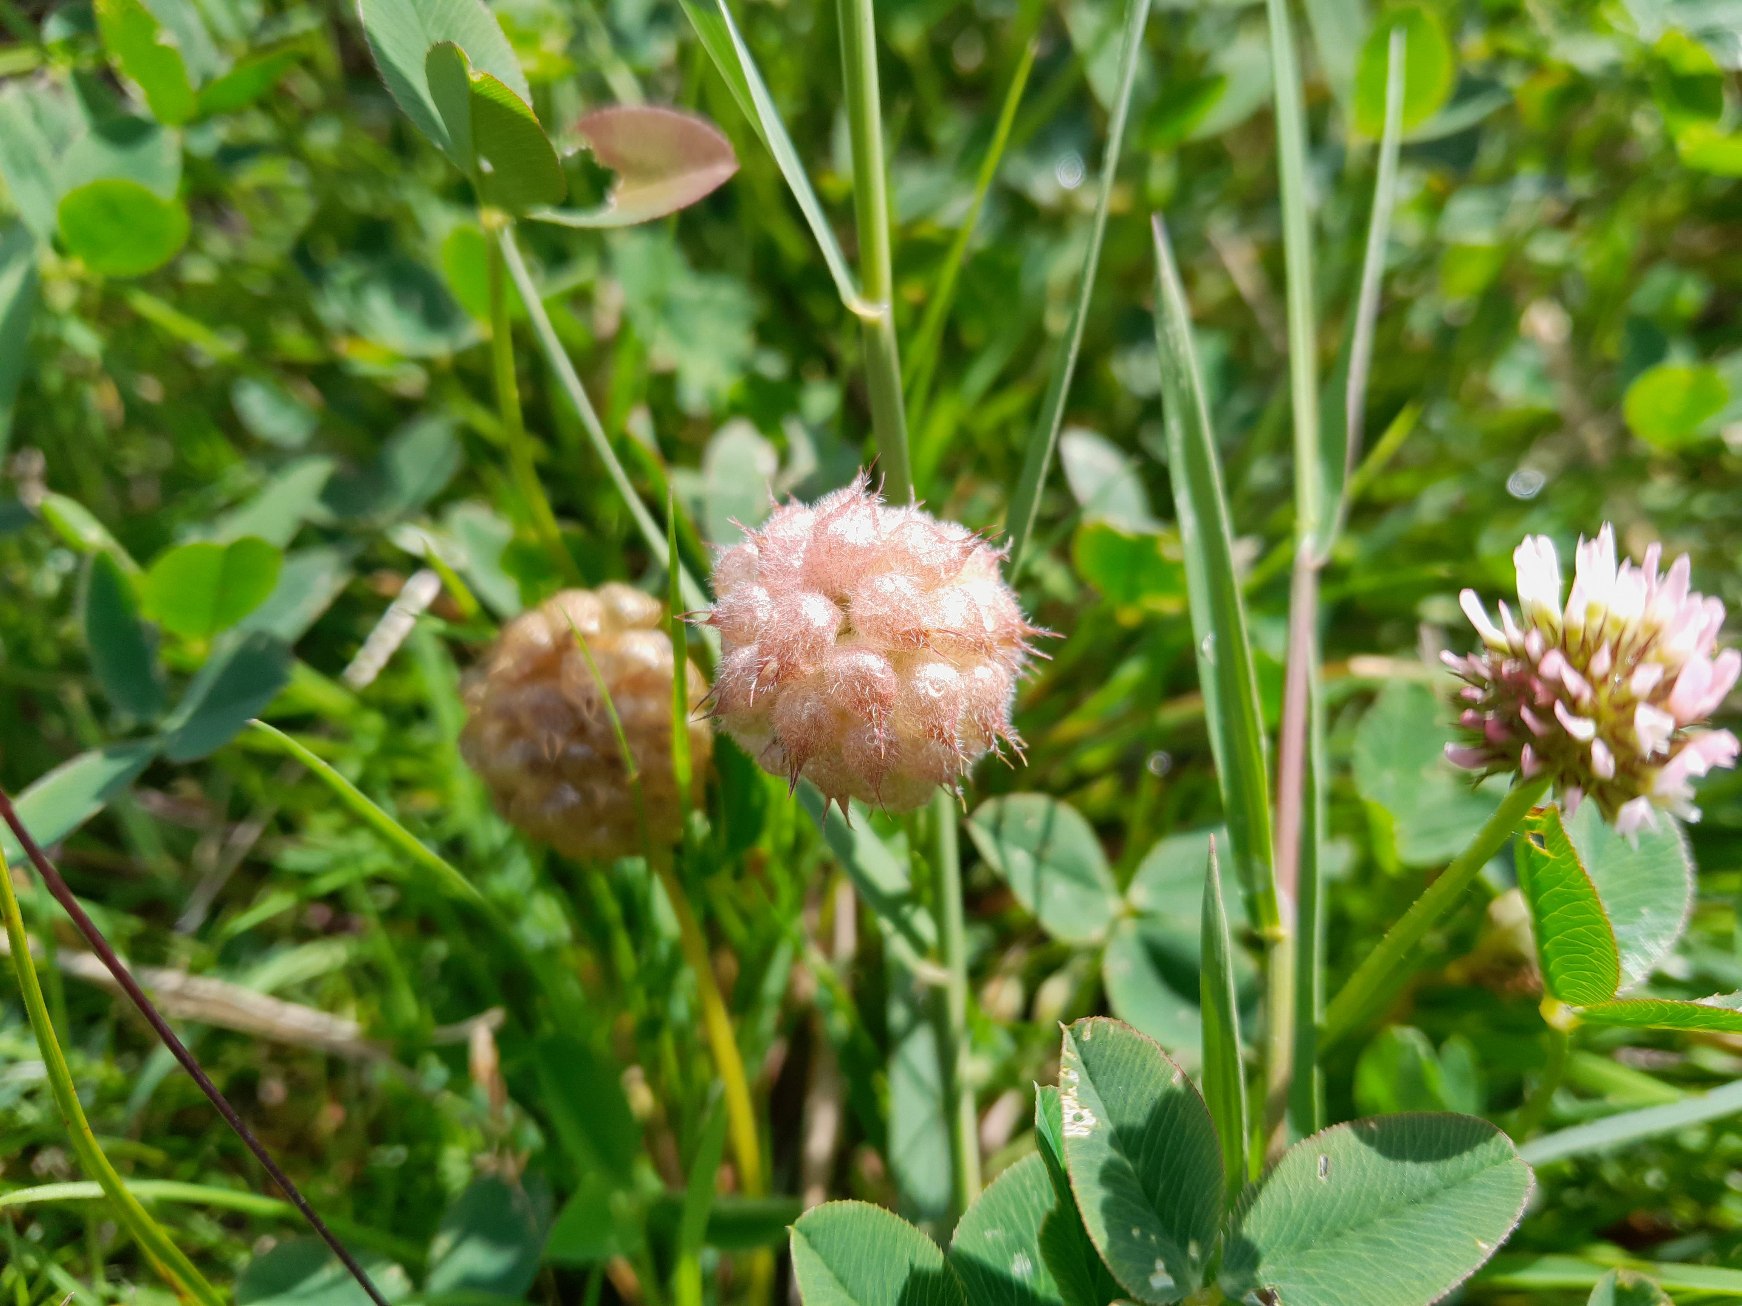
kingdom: Plantae
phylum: Tracheophyta
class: Magnoliopsida
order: Fabales
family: Fabaceae
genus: Trifolium
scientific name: Trifolium fragiferum
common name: Jordbær-kløver
